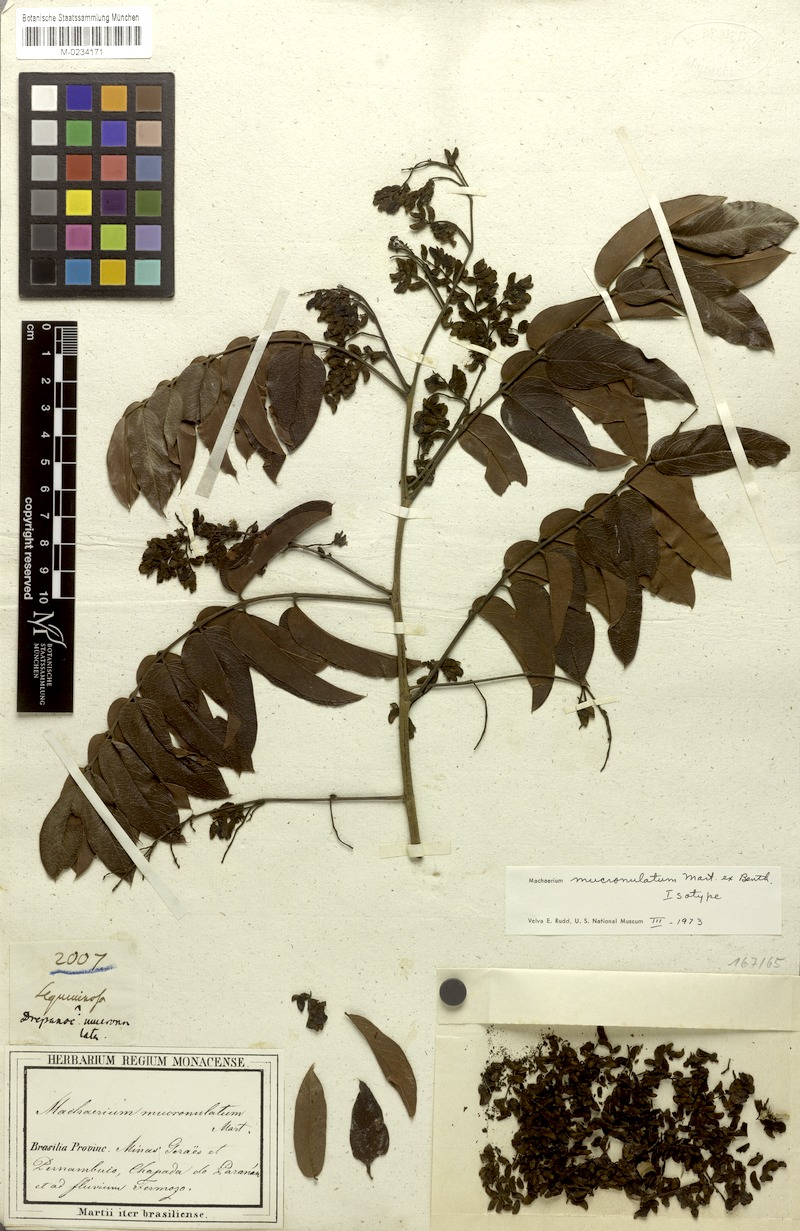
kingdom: Plantae
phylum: Tracheophyta
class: Magnoliopsida
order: Fabales
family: Fabaceae
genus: Machaerium
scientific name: Machaerium mucronulatum
